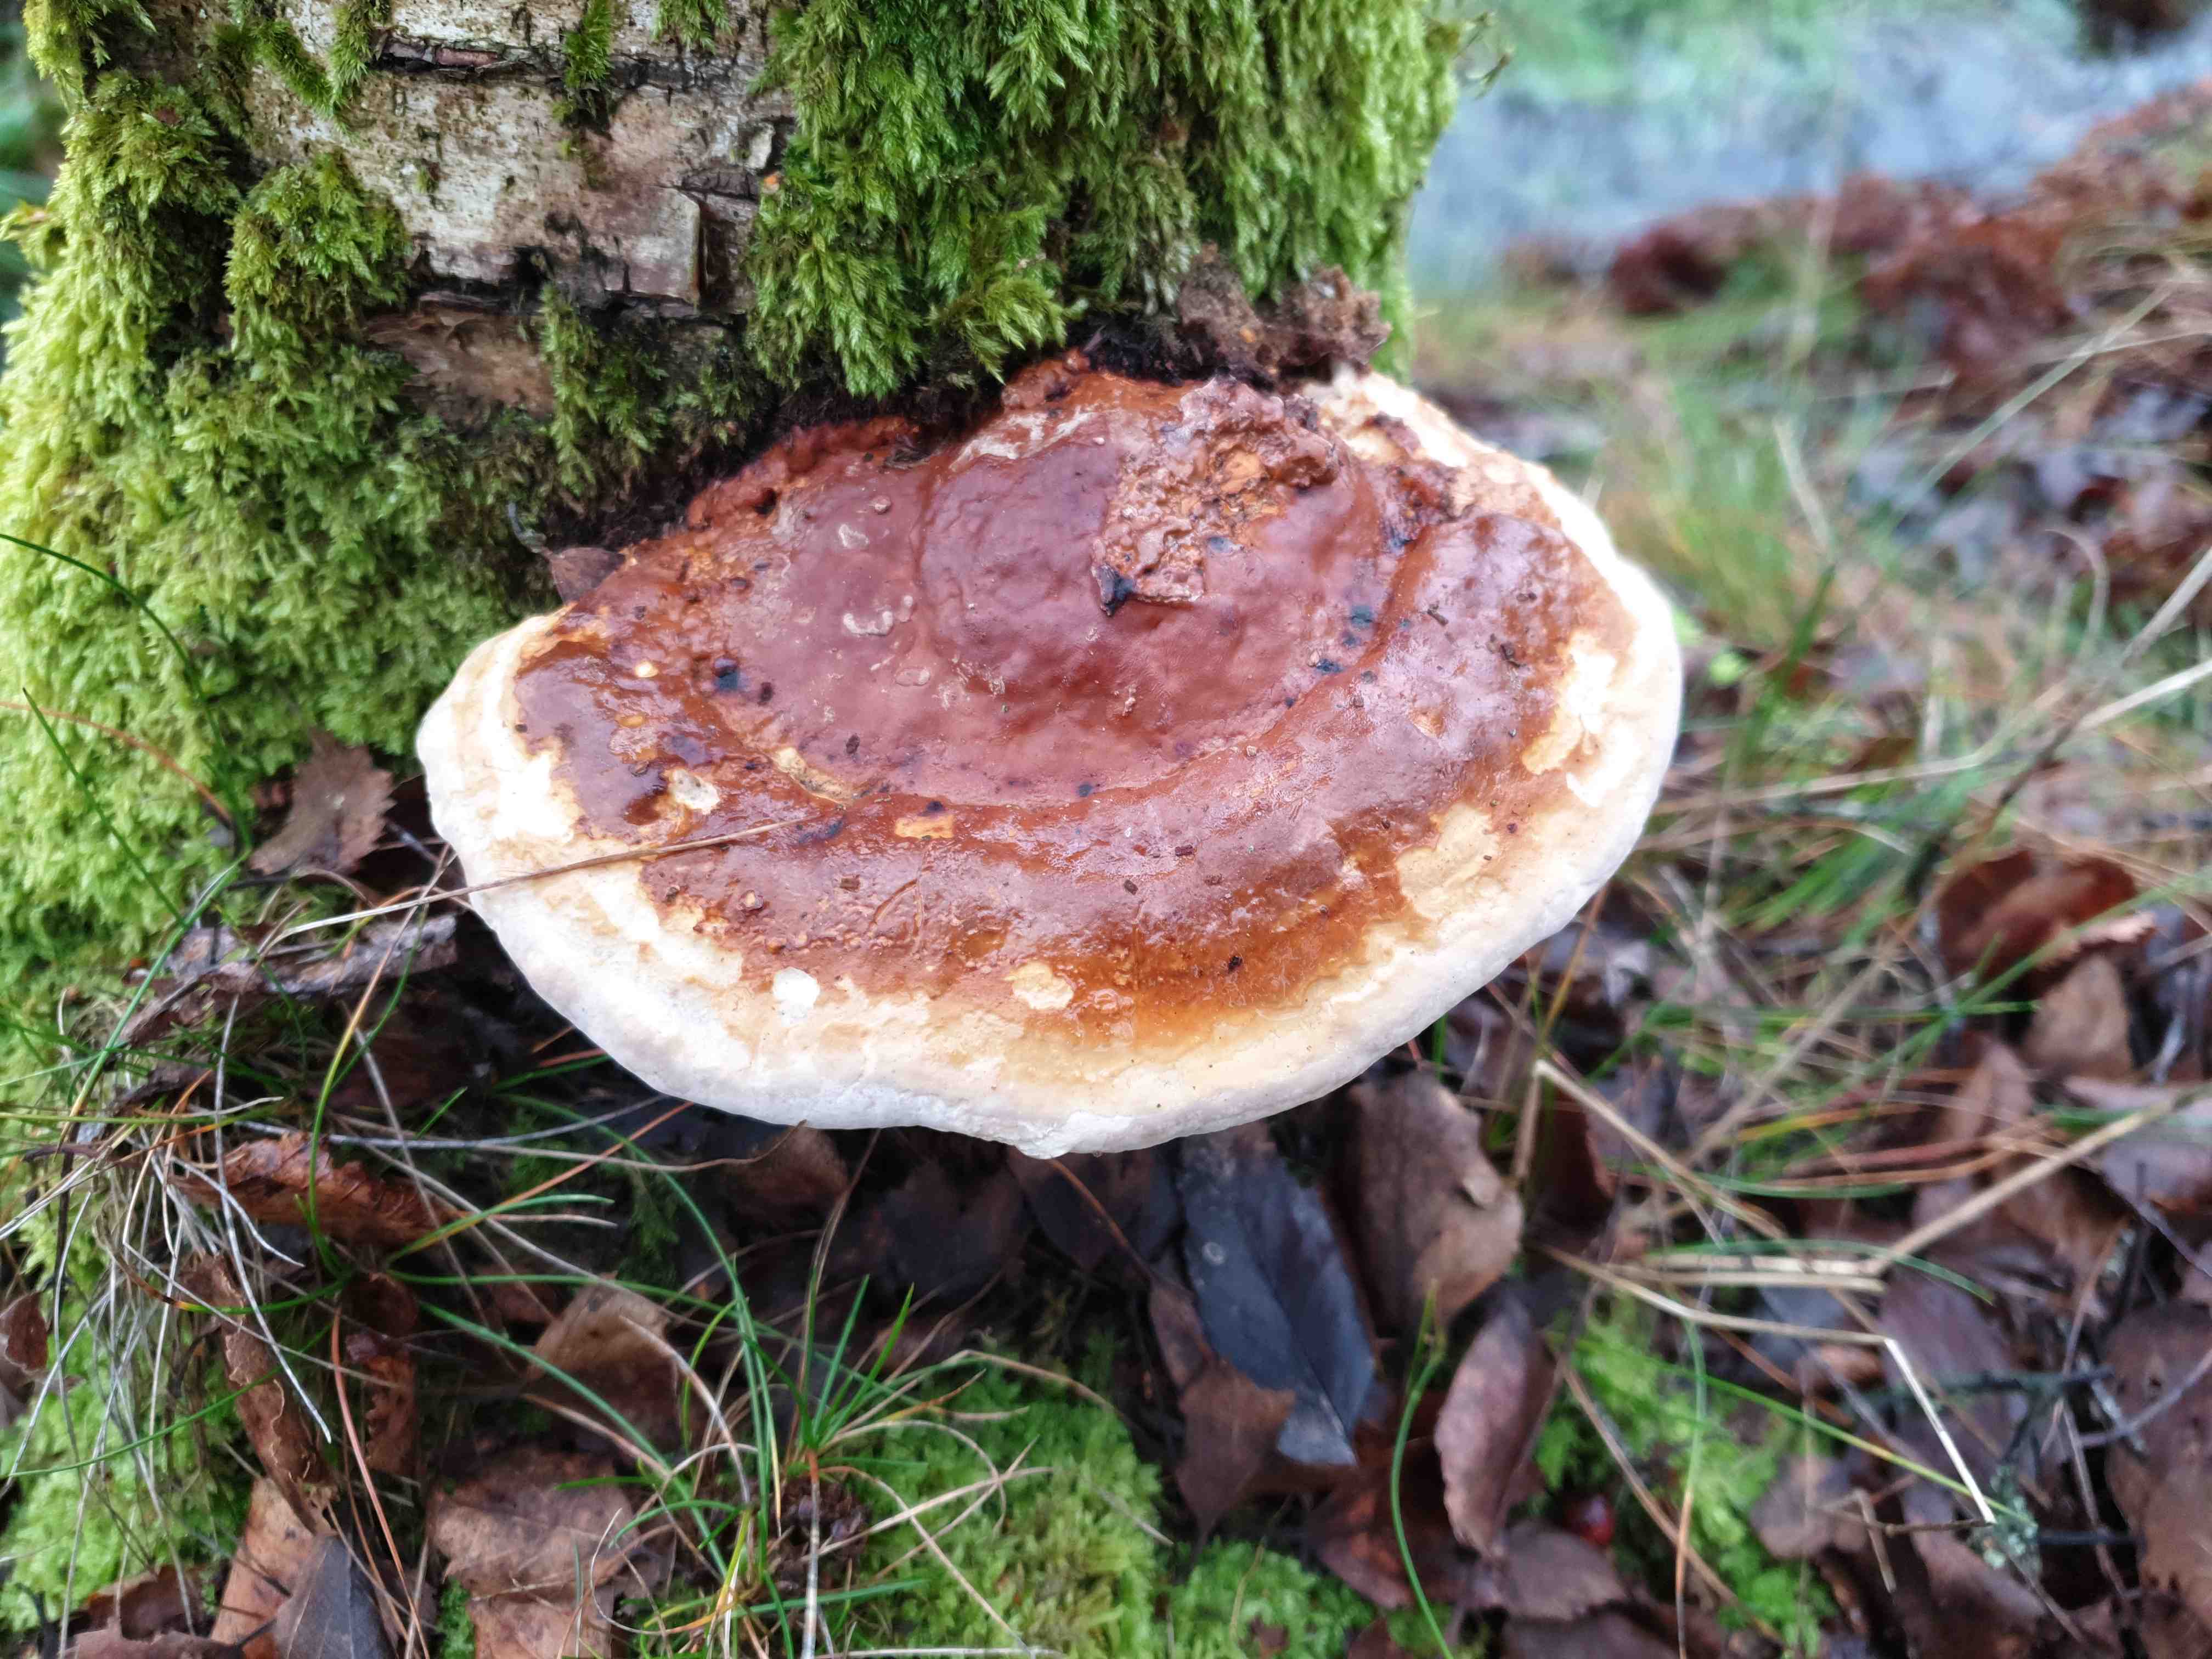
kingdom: Fungi
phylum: Basidiomycota
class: Agaricomycetes
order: Polyporales
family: Fomitopsidaceae
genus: Fomitopsis
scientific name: Fomitopsis pinicola
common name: randbæltet hovporesvamp
